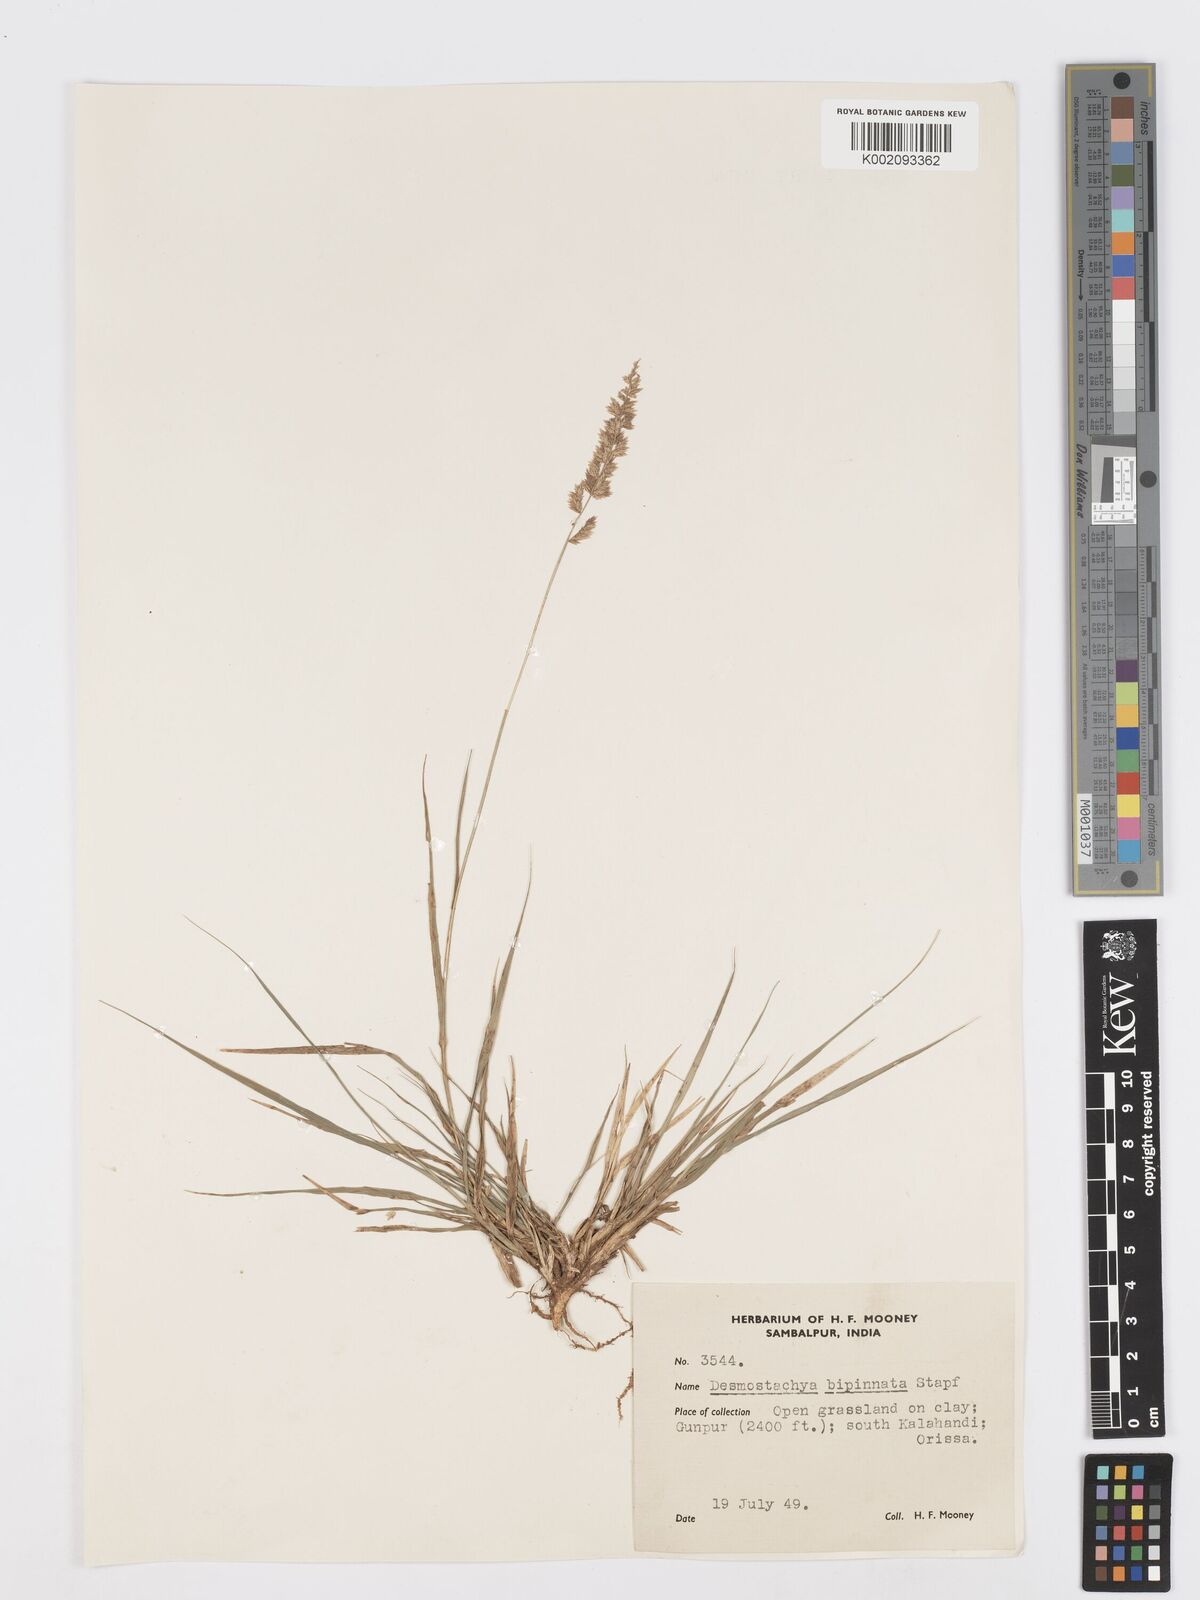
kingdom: Plantae
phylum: Tracheophyta
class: Liliopsida
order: Poales
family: Poaceae
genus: Desmostachya
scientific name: Desmostachya bipinnata
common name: Crowfoot grass
